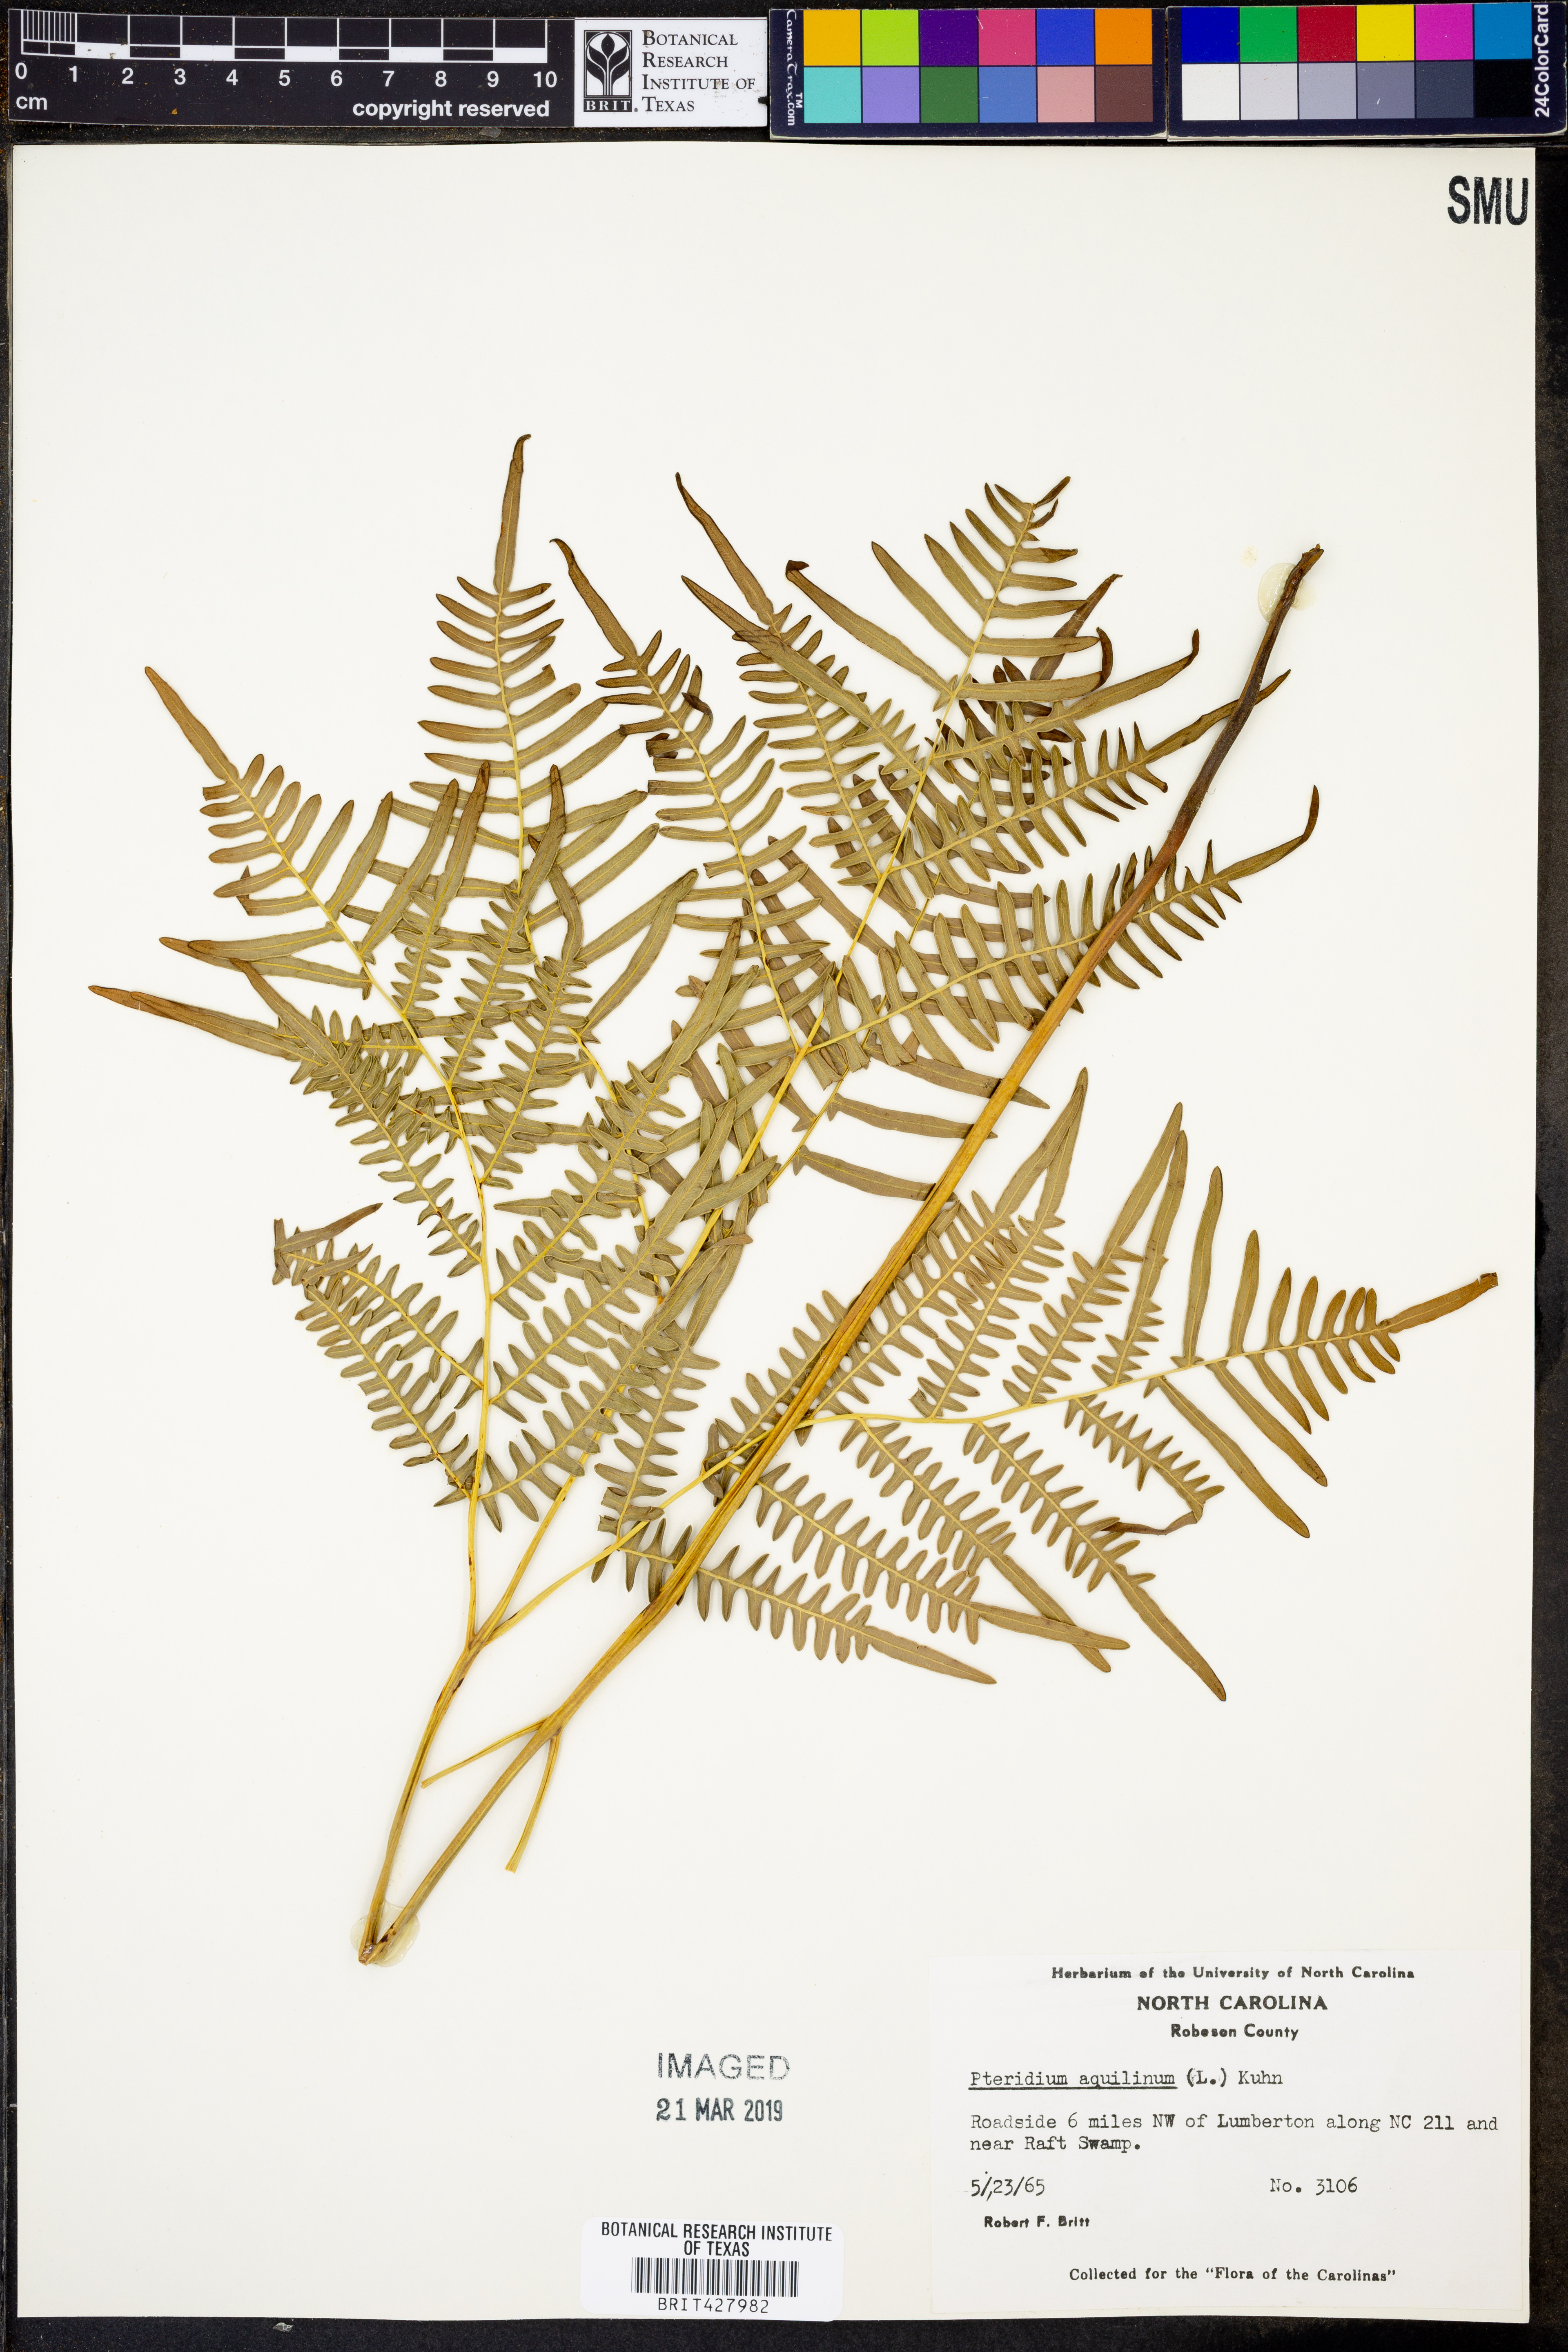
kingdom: Plantae
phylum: Tracheophyta
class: Polypodiopsida
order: Polypodiales
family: Dennstaedtiaceae
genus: Pteridium
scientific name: Pteridium aquilinum
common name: Bracken
